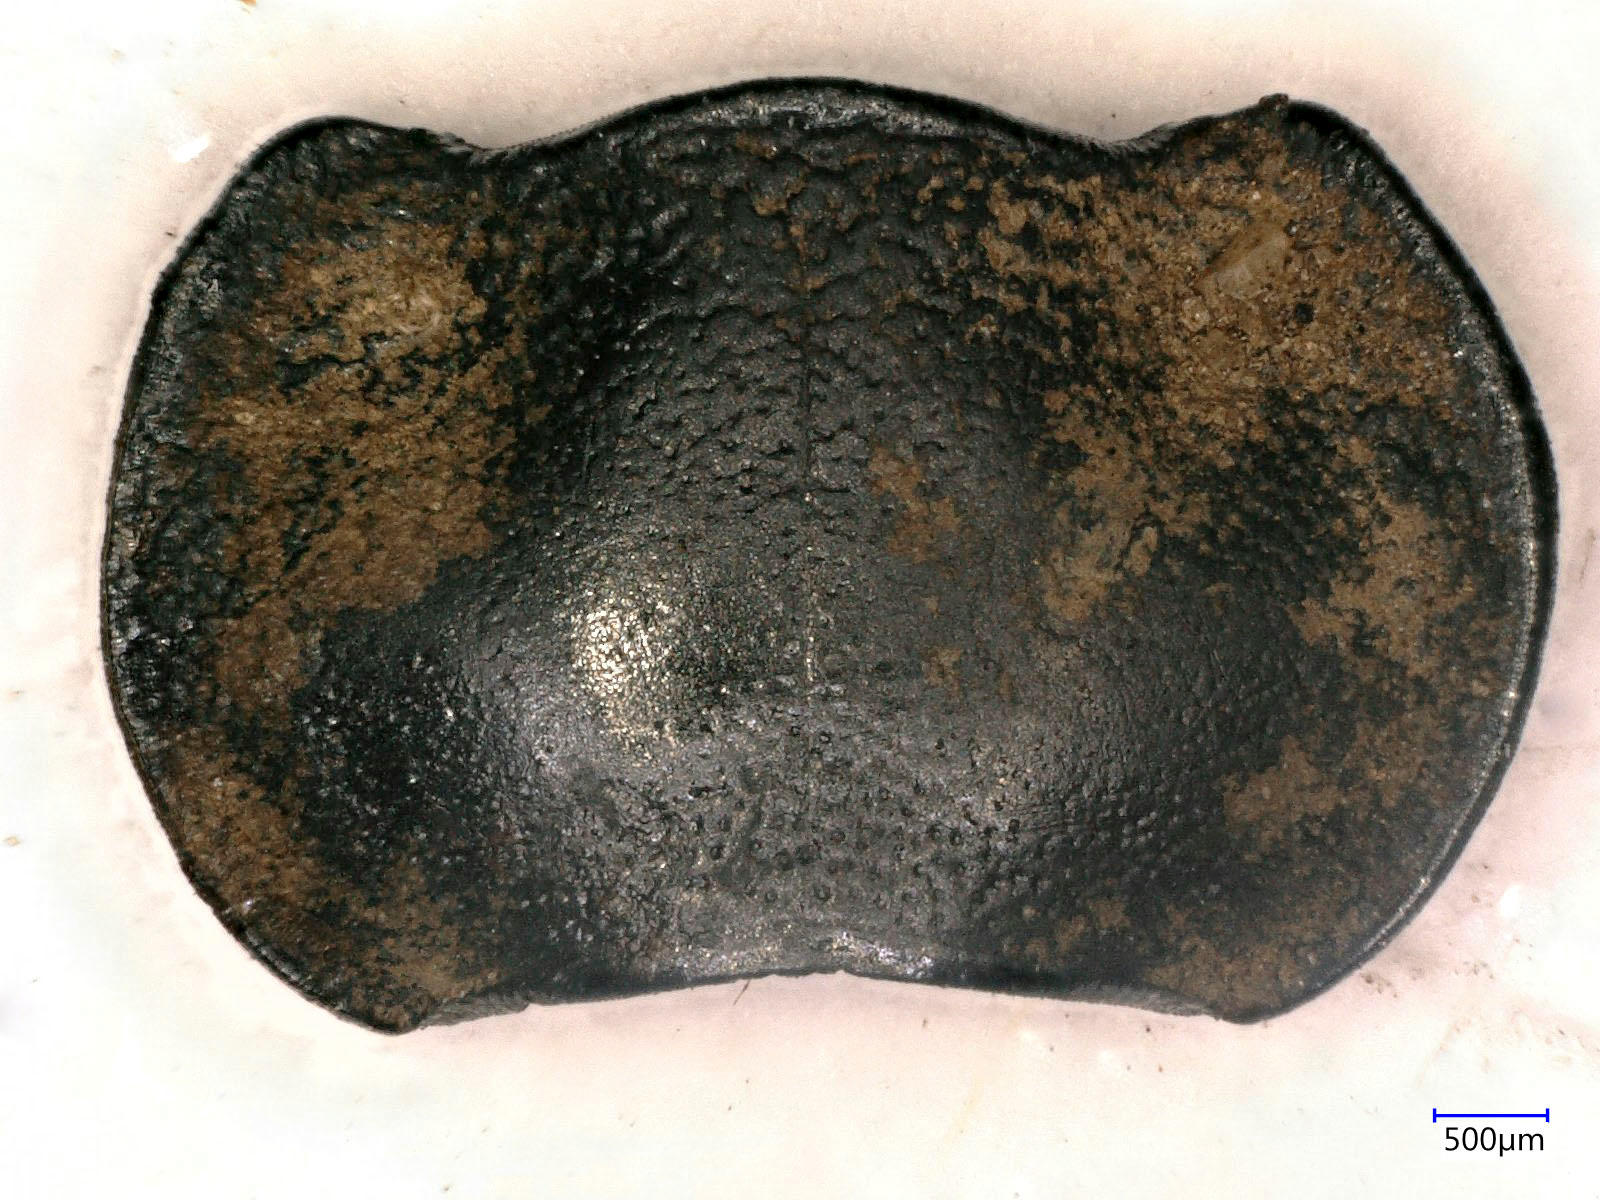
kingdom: Animalia
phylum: Arthropoda
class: Insecta
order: Coleoptera
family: Carabidae
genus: Calosoma
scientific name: Calosoma semilaeve
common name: Black calosoma beetle
